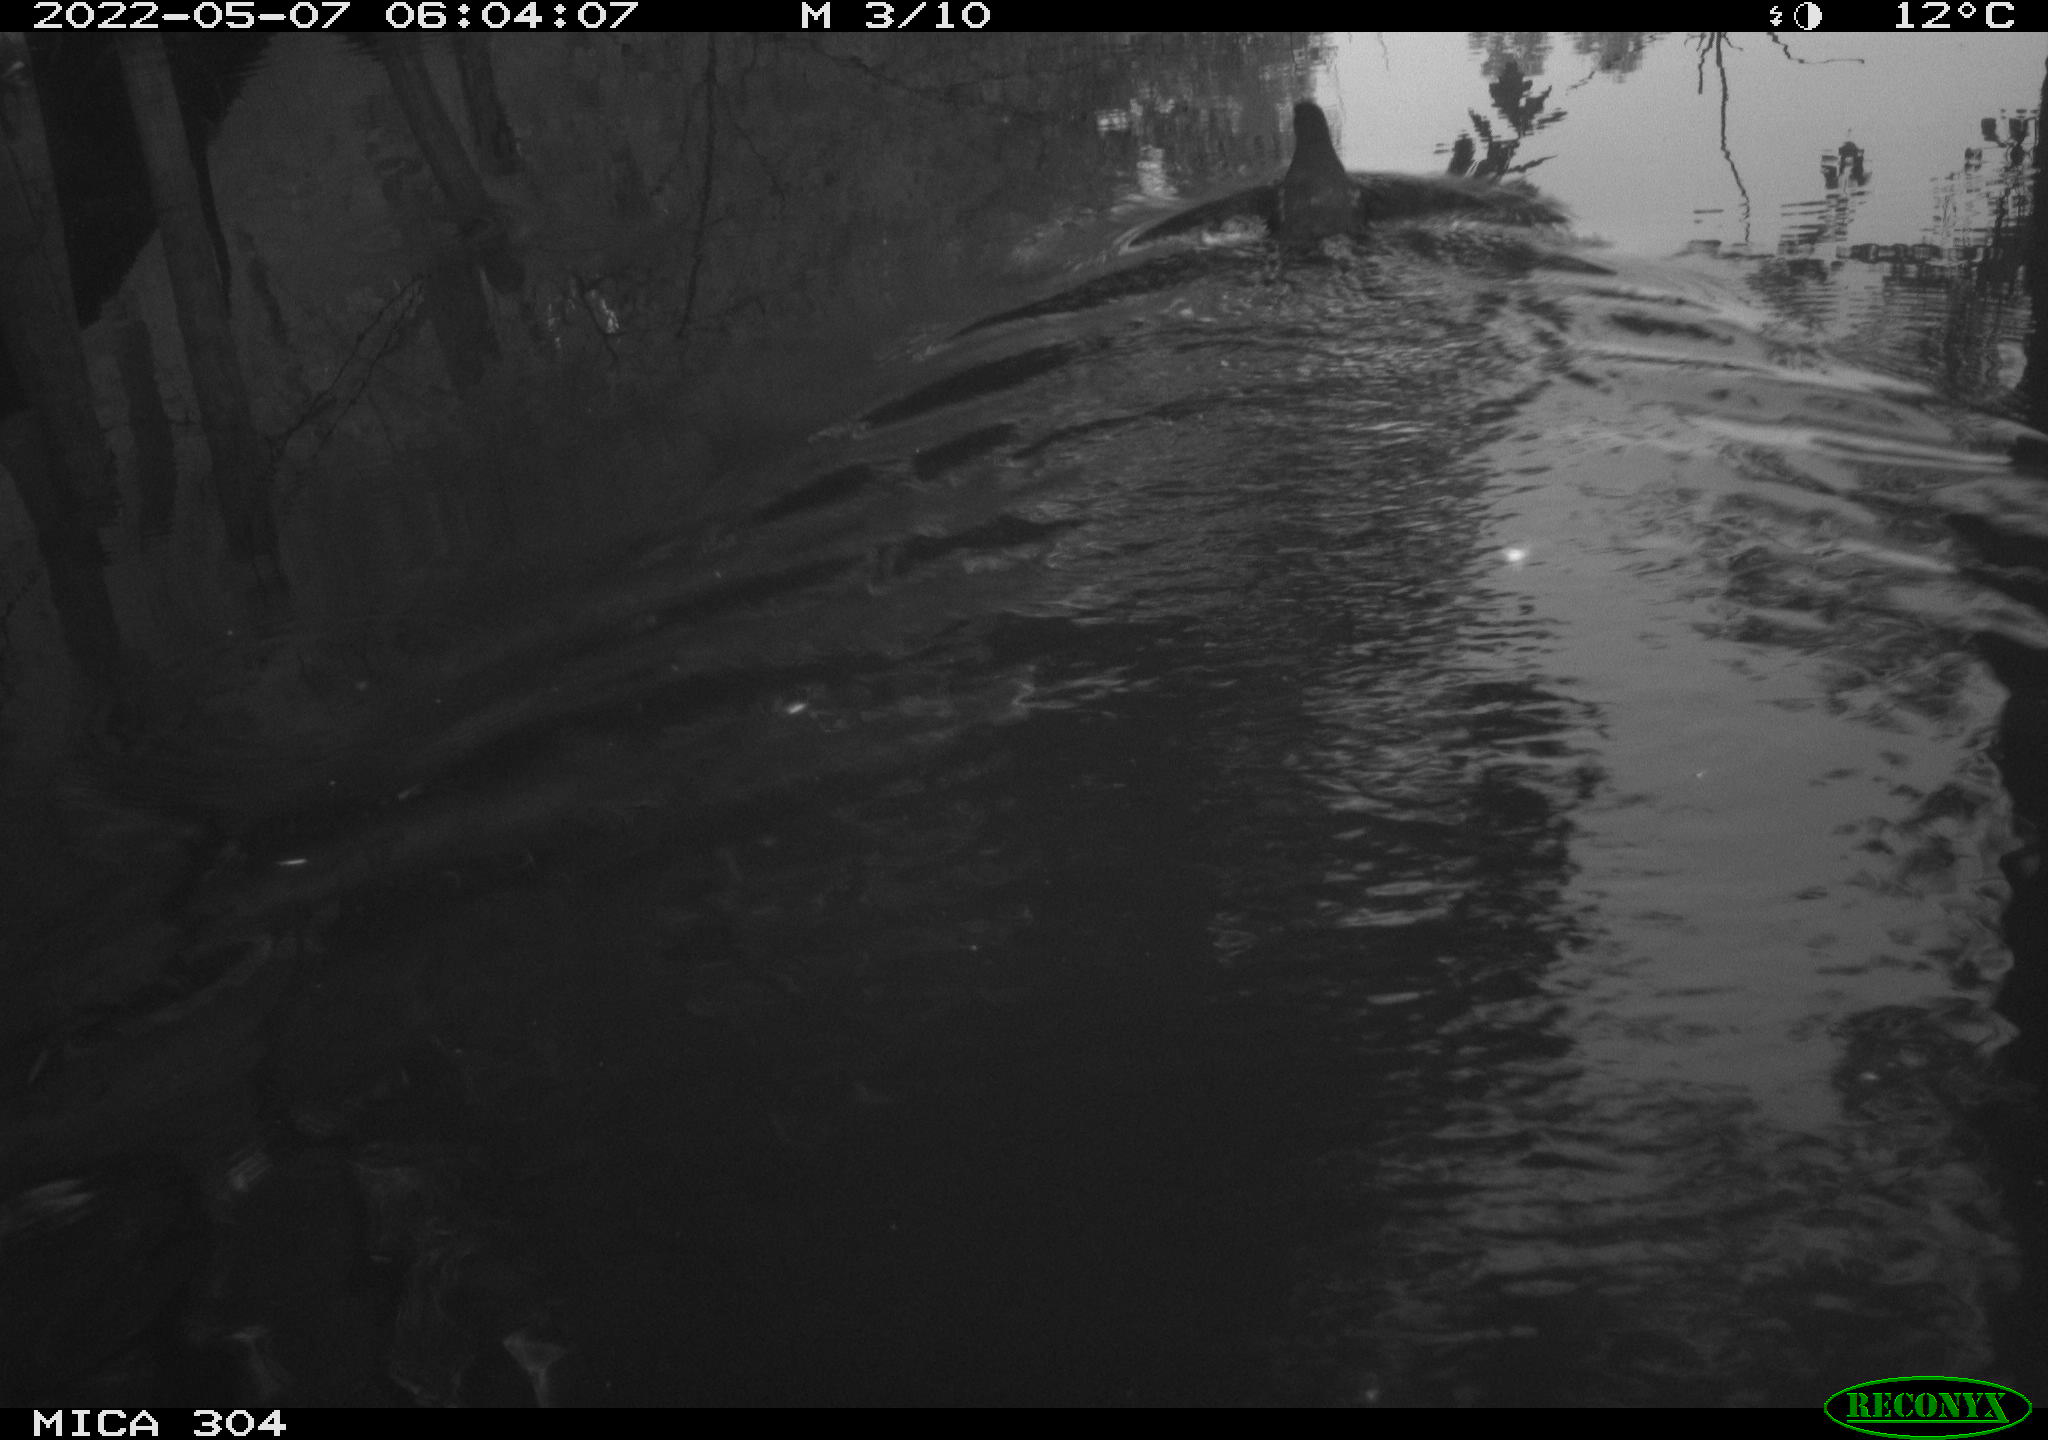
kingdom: Animalia
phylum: Chordata
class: Aves
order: Gruiformes
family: Rallidae
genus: Gallinula
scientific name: Gallinula chloropus
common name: Common moorhen
